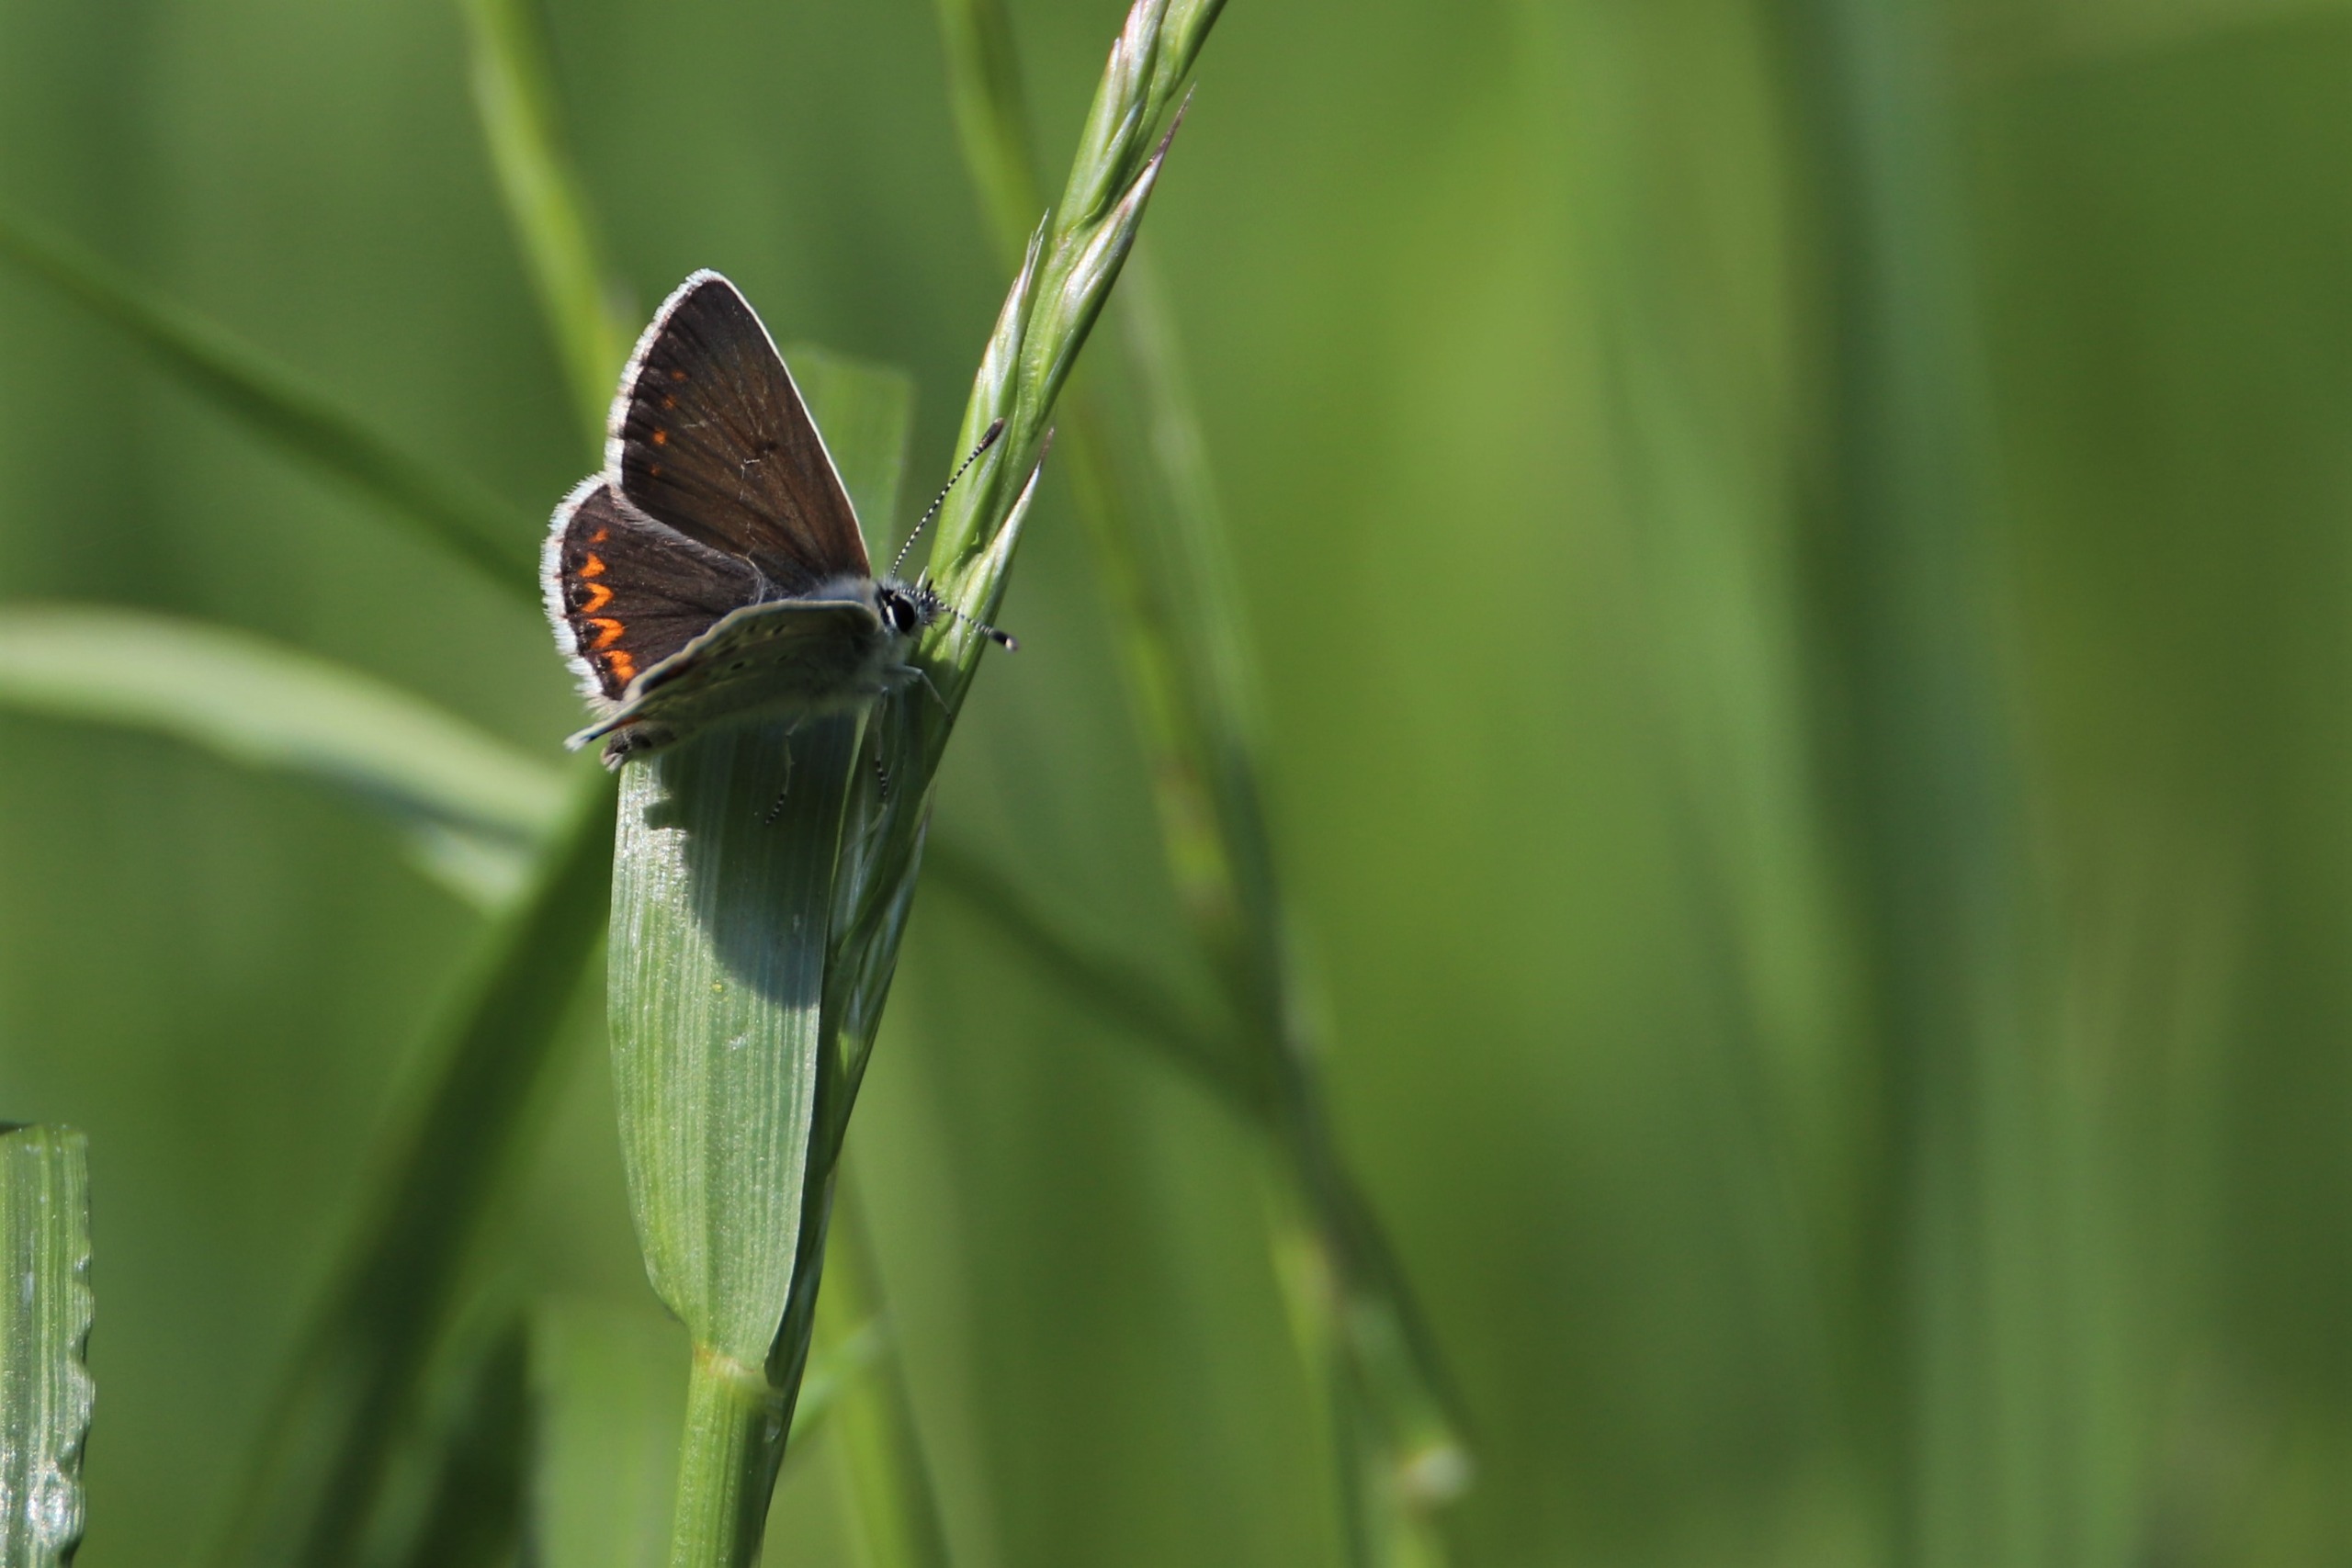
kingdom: Animalia
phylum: Arthropoda
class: Insecta
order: Lepidoptera
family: Lycaenidae
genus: Aricia
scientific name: Aricia agestis
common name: Rødplettet blåfugl
